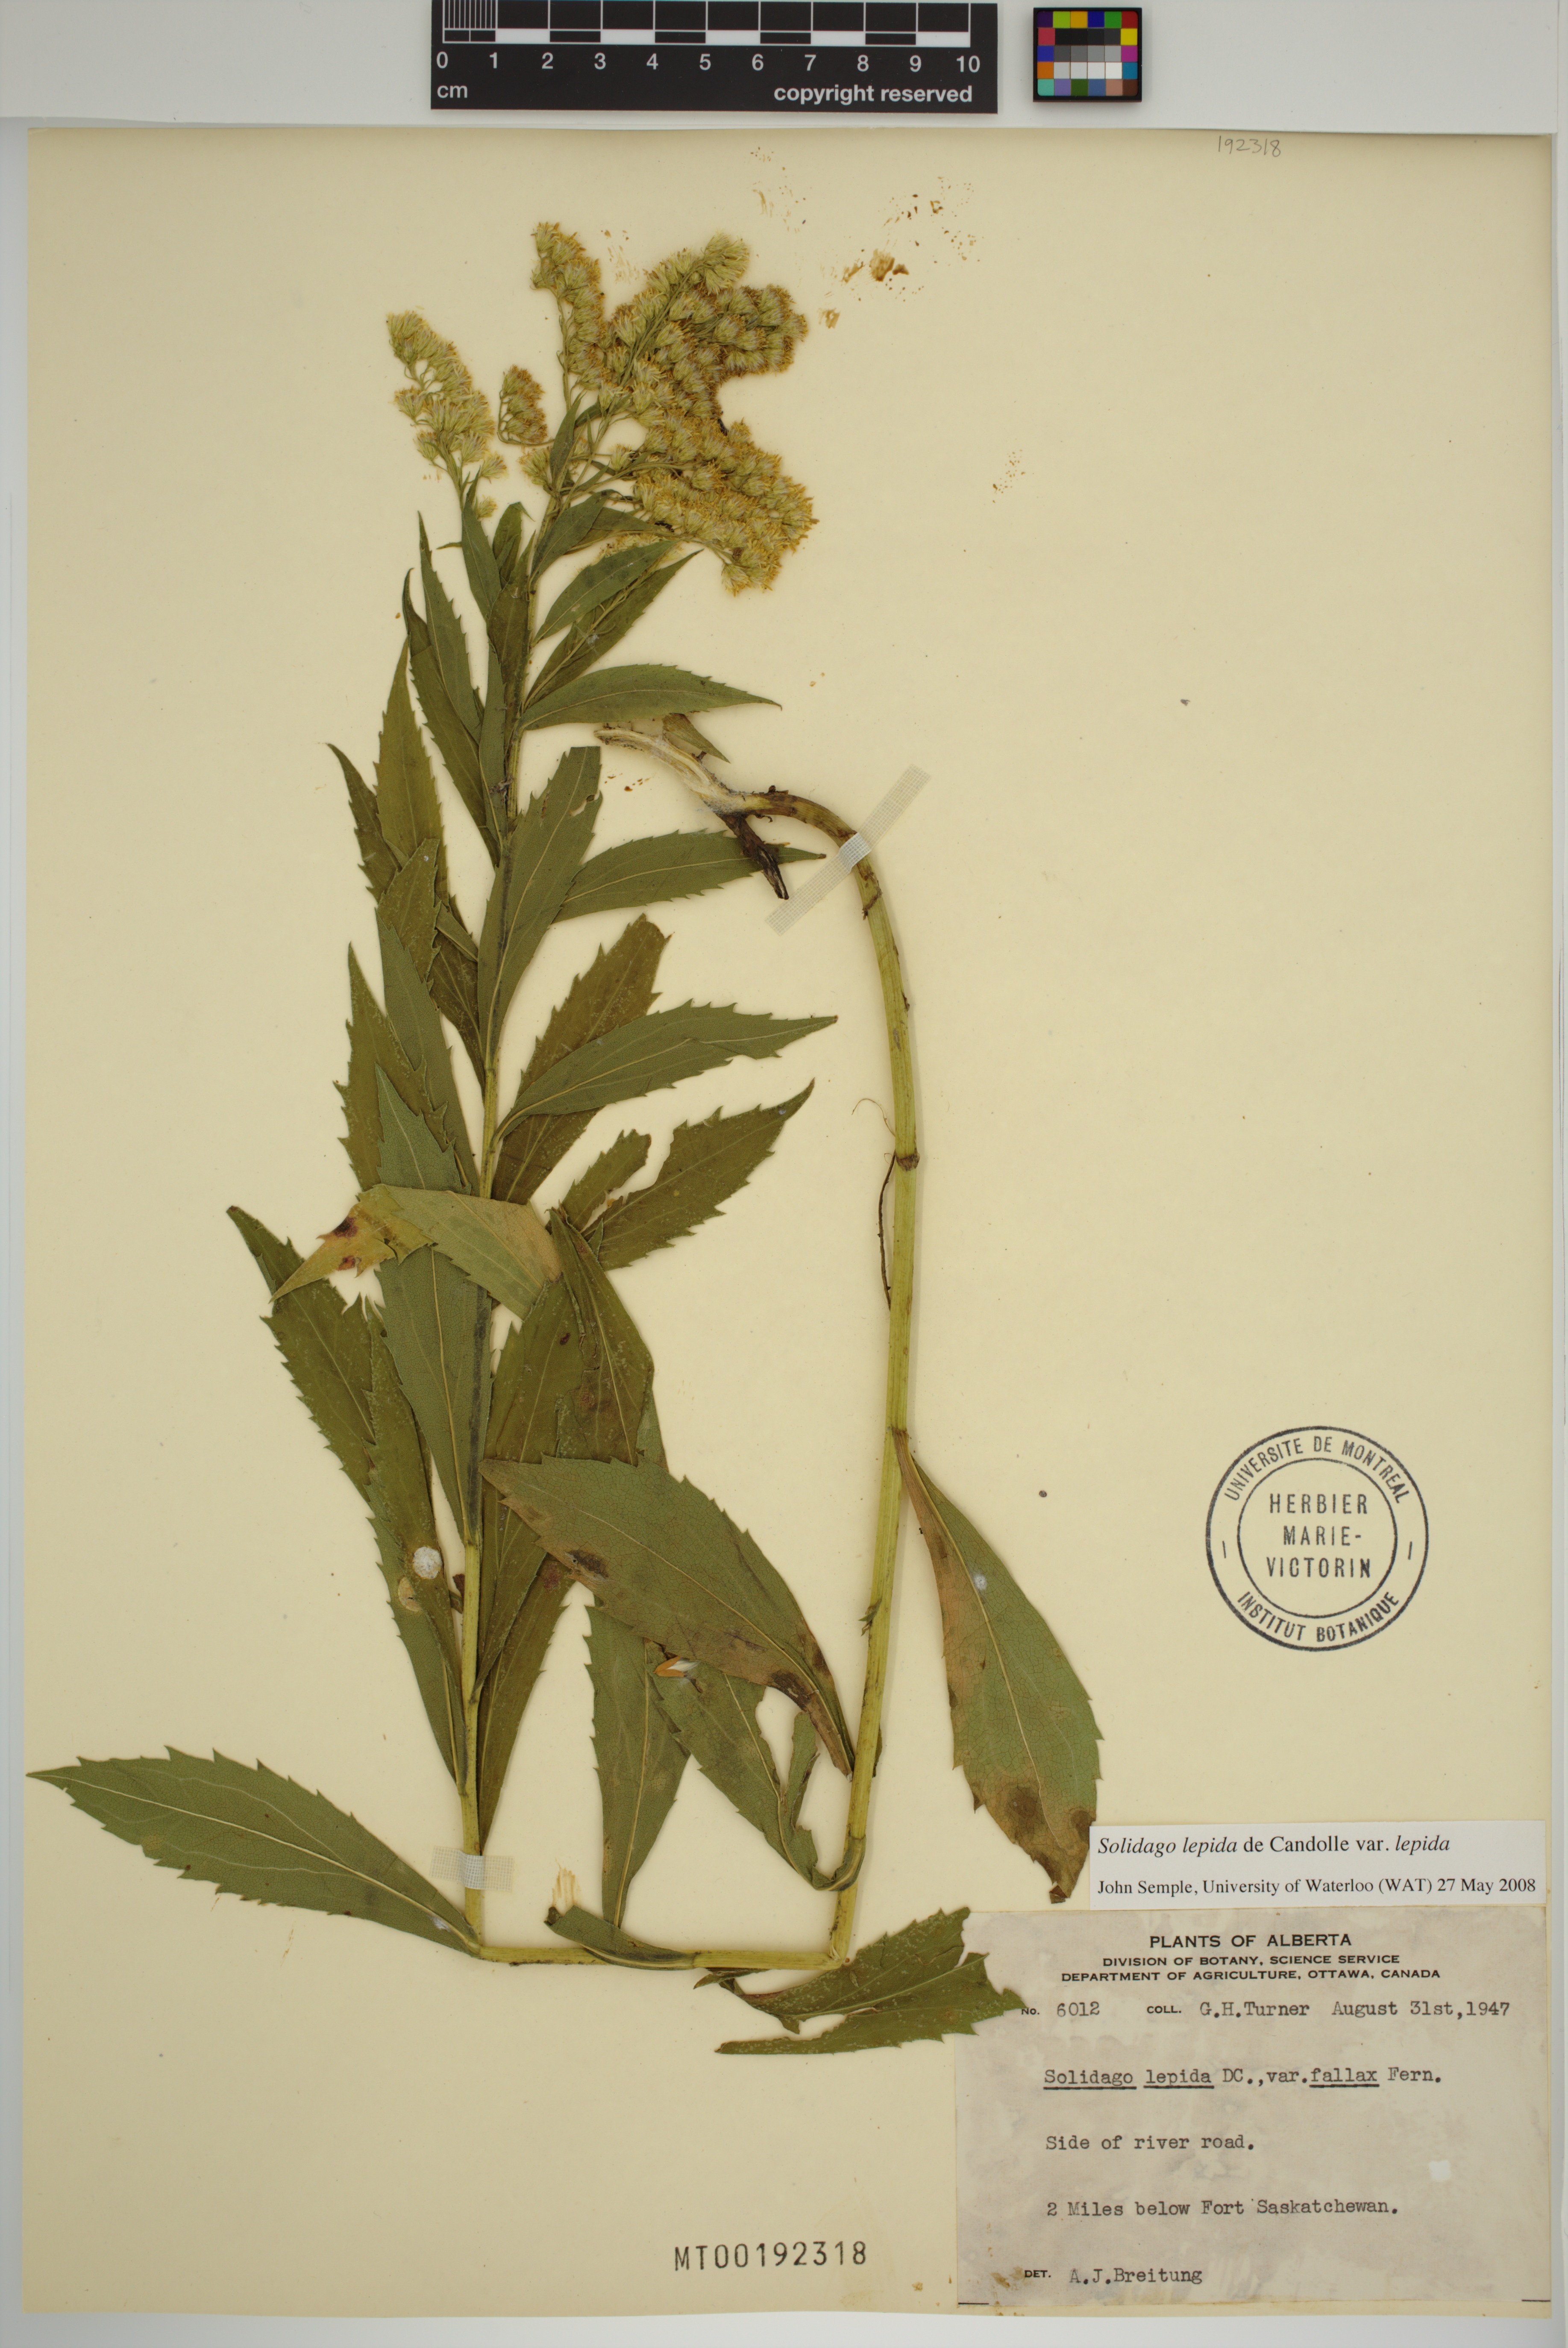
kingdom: Plantae
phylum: Tracheophyta
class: Magnoliopsida
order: Asterales
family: Asteraceae
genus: Solidago
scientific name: Solidago lepida
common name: Western canada goldenrod
